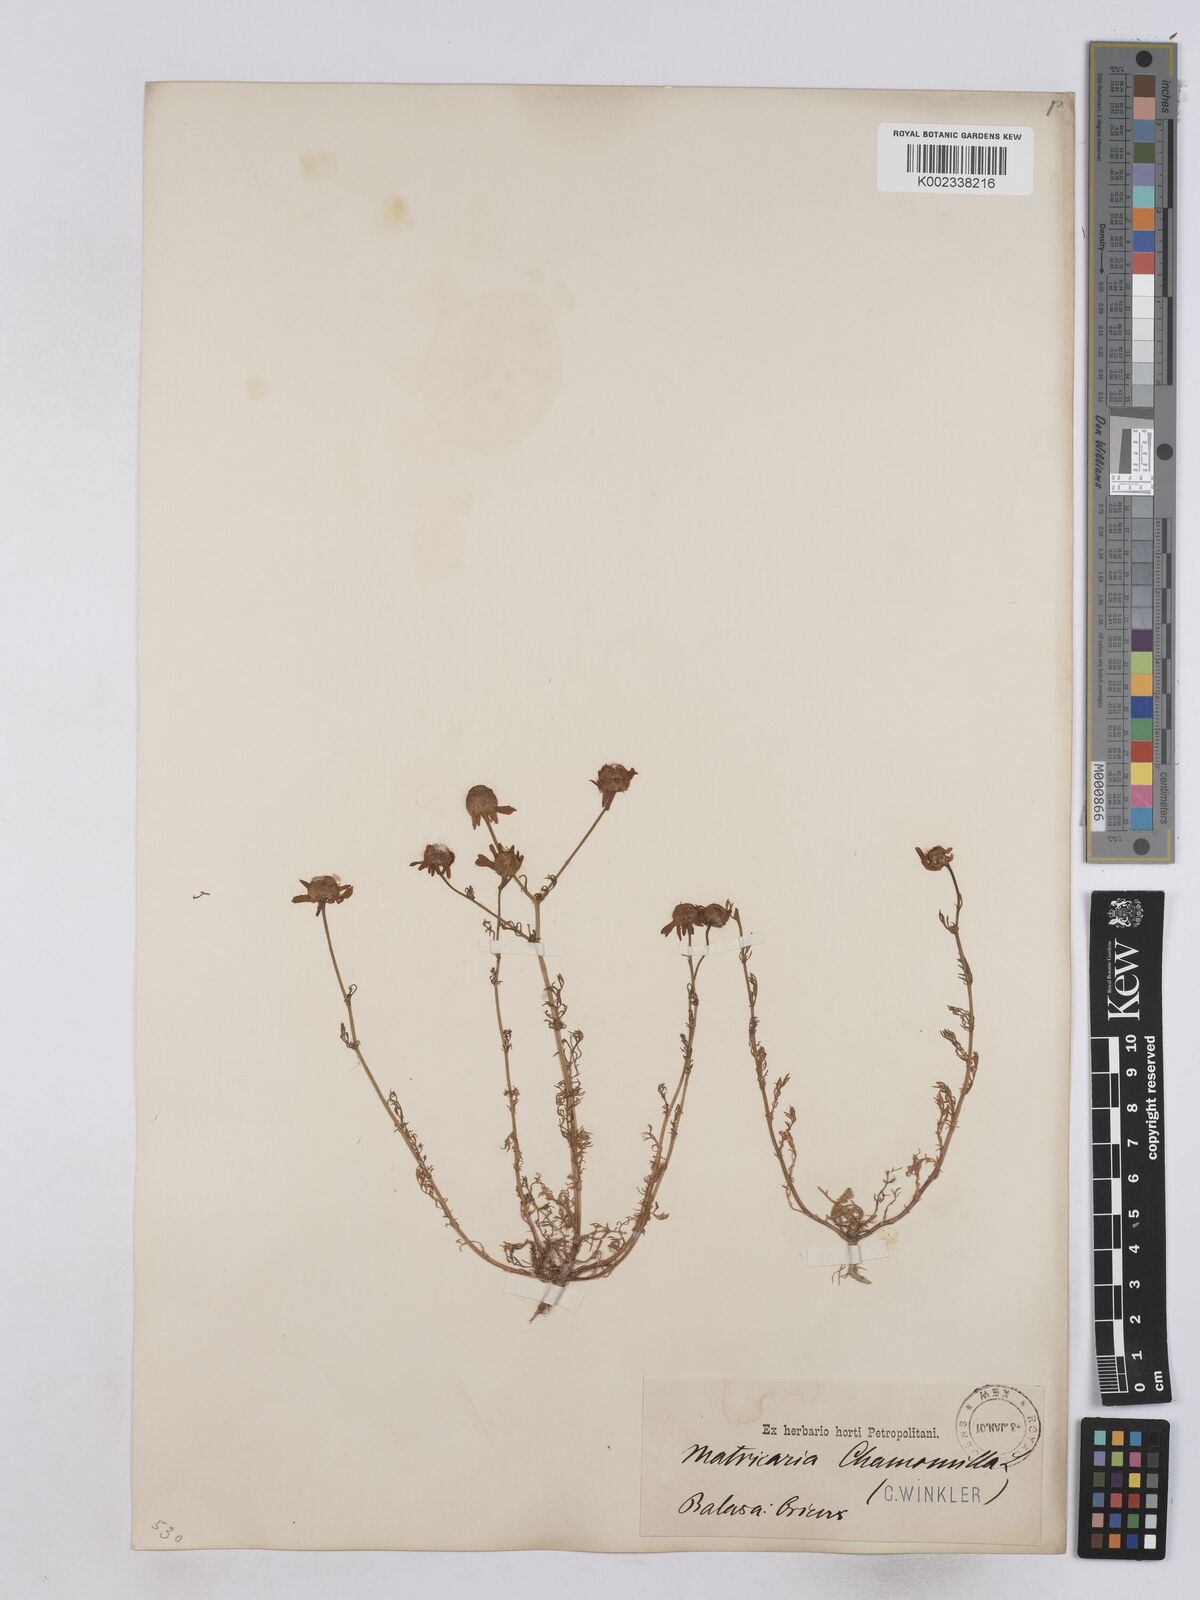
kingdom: Plantae
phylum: Tracheophyta
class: Magnoliopsida
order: Asterales
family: Asteraceae
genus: Matricaria
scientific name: Matricaria chamomilla
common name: Scented mayweed
